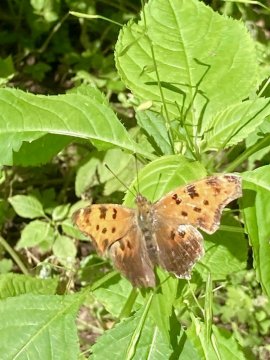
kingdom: Animalia
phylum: Arthropoda
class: Insecta
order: Lepidoptera
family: Nymphalidae
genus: Polygonia
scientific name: Polygonia interrogationis
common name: Question Mark
